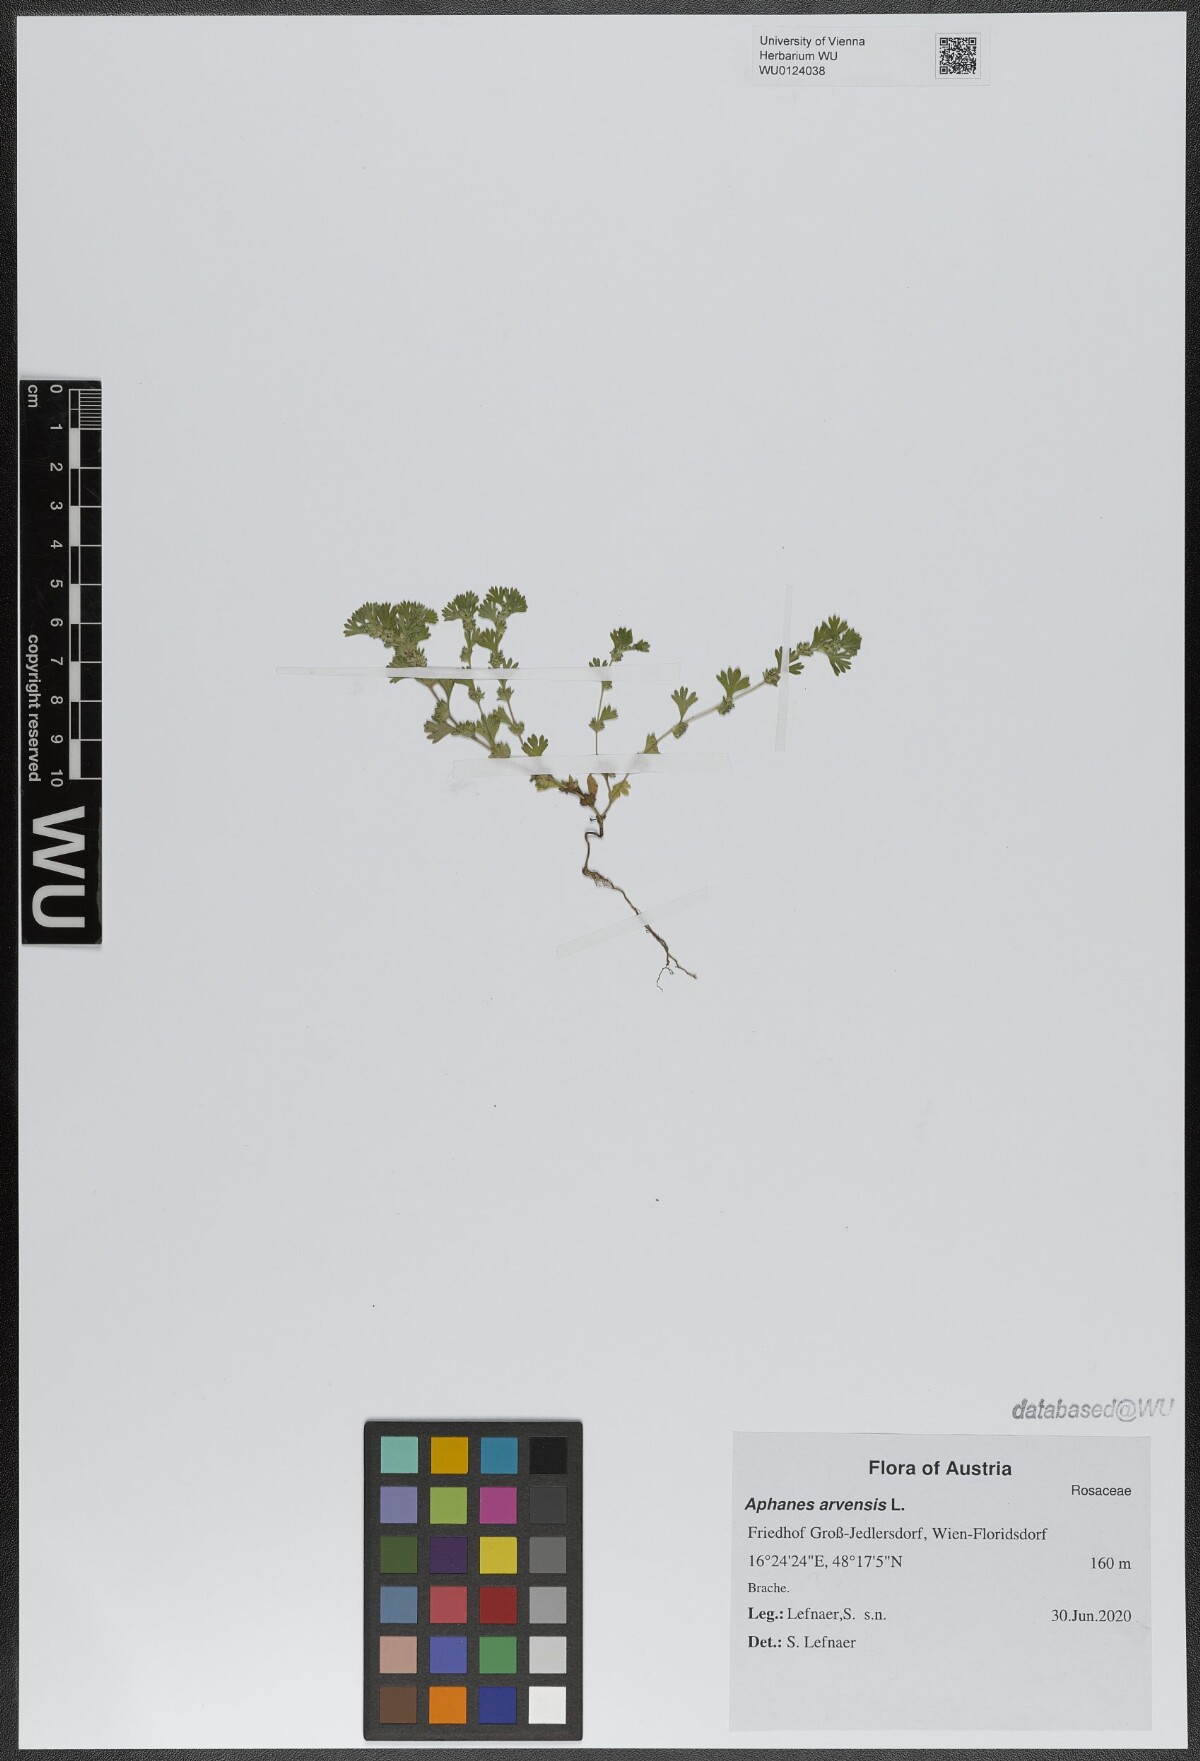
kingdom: Plantae
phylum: Tracheophyta
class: Magnoliopsida
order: Rosales
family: Rosaceae
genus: Aphanes
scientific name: Aphanes arvensis
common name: Parsley-piert
